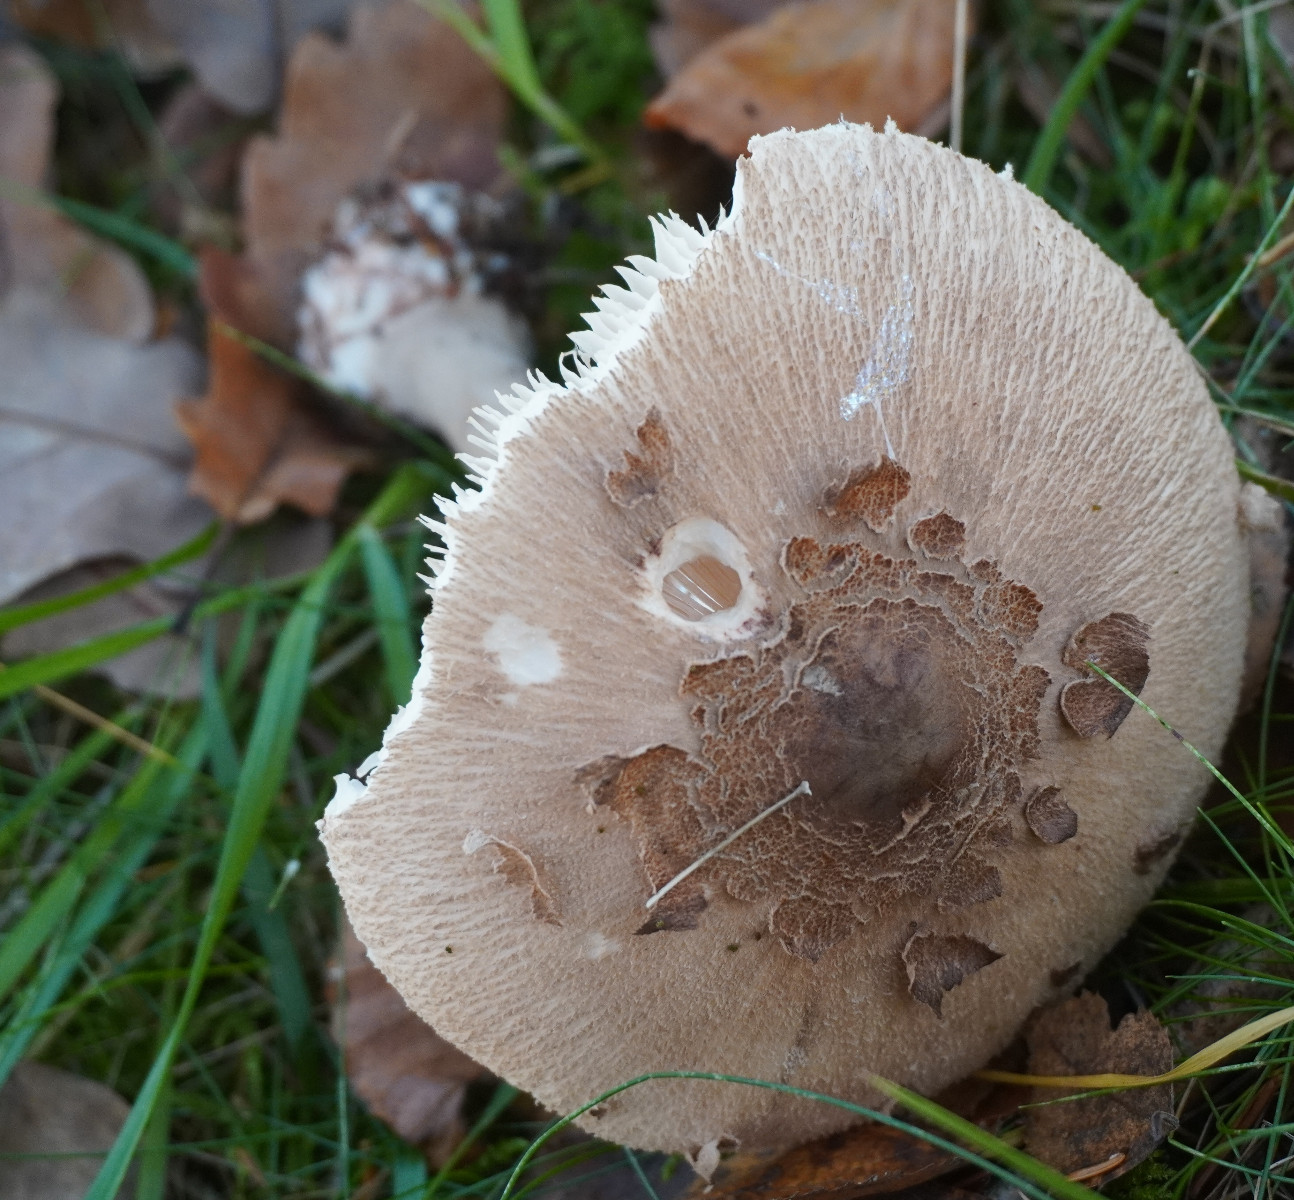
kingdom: Fungi
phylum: Basidiomycota
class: Agaricomycetes
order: Agaricales
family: Agaricaceae
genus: Macrolepiota
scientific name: Macrolepiota mastoidea
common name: puklet kæmpeparasolhat
